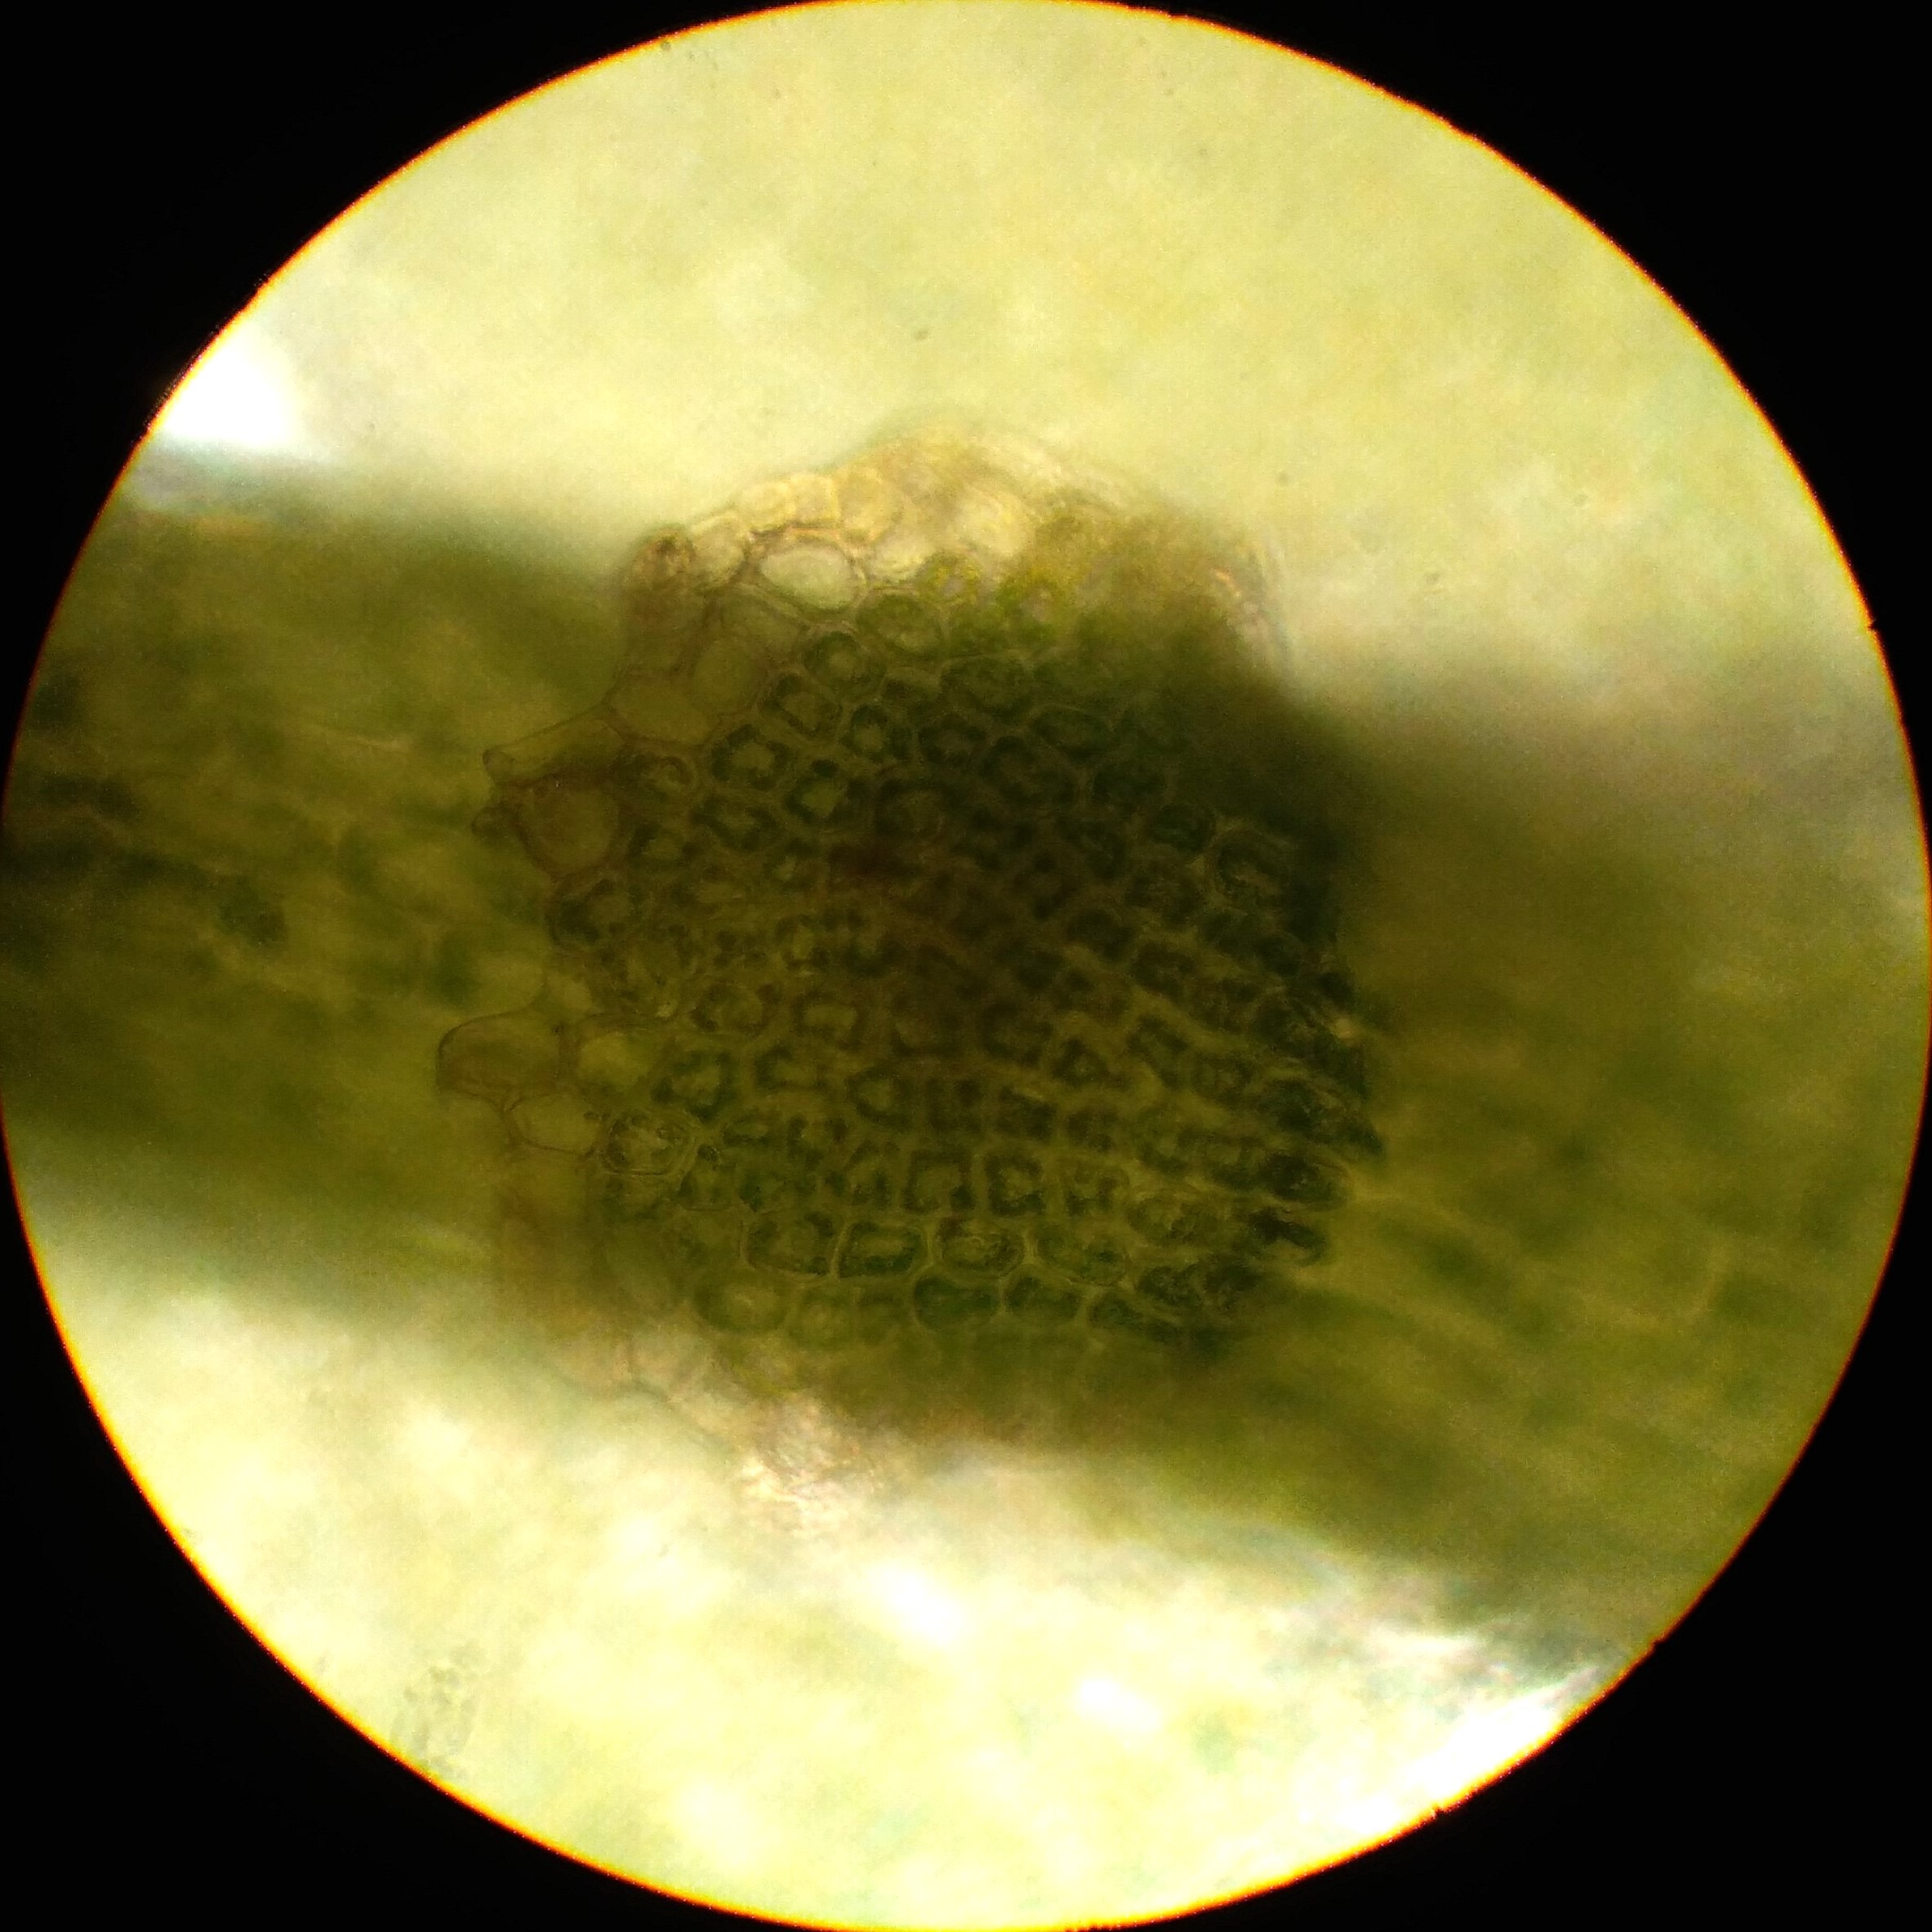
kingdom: Plantae
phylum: Marchantiophyta
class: Jungermanniopsida
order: Jungermanniales
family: Lepidoziaceae
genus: Bazzania
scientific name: Bazzania trilobata
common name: Stor styltemos
